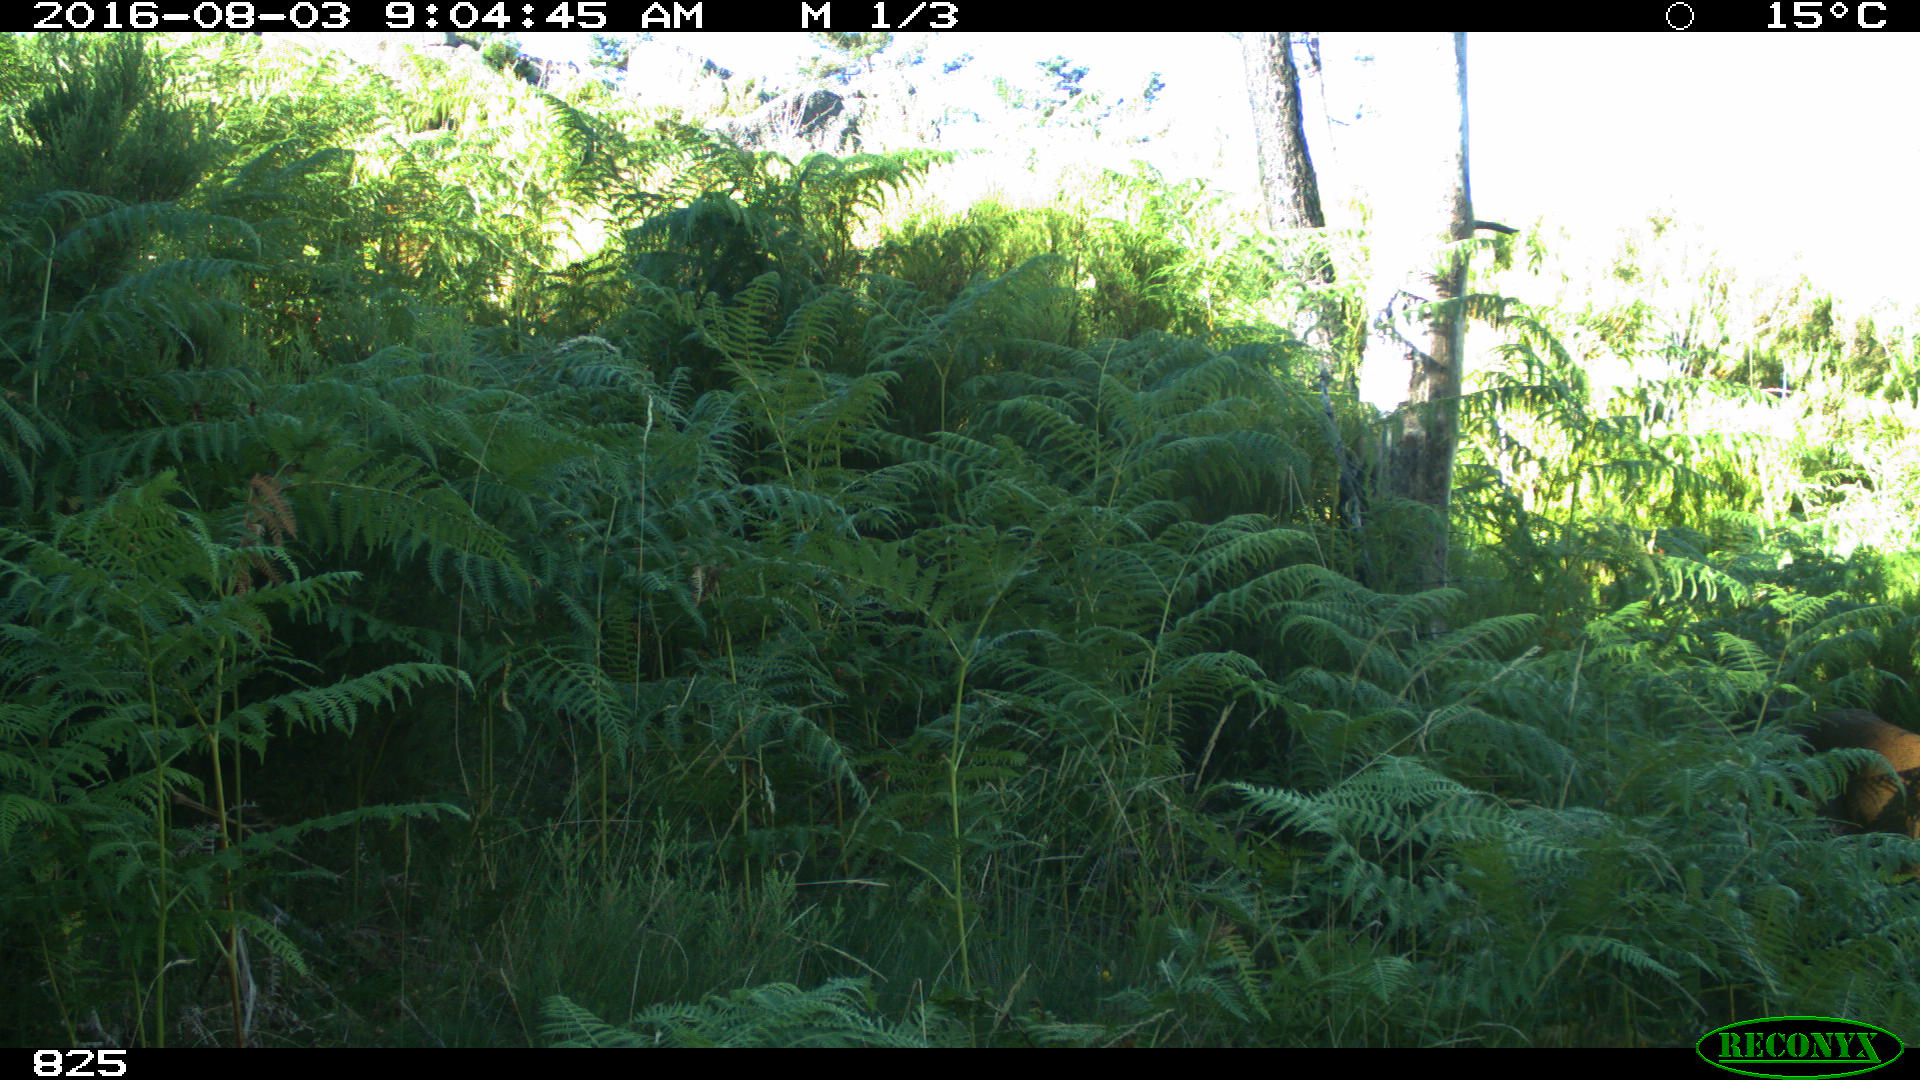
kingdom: Animalia
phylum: Chordata
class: Mammalia
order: Artiodactyla
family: Cervidae
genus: Capreolus
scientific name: Capreolus capreolus
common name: Western roe deer
